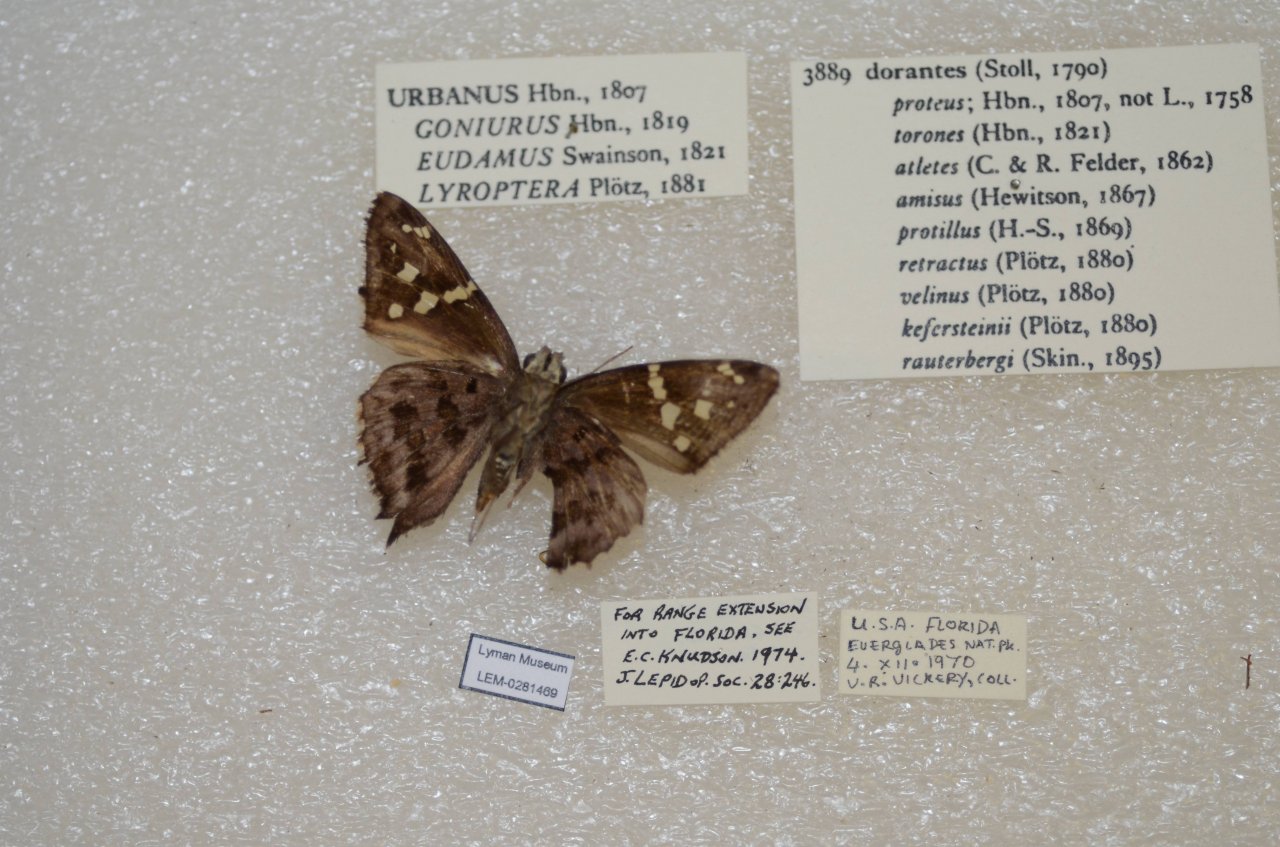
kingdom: Animalia
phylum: Arthropoda
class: Insecta
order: Lepidoptera
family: Hesperiidae
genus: Urbanus
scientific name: Urbanus dorantes
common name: Dorantes Longtail
